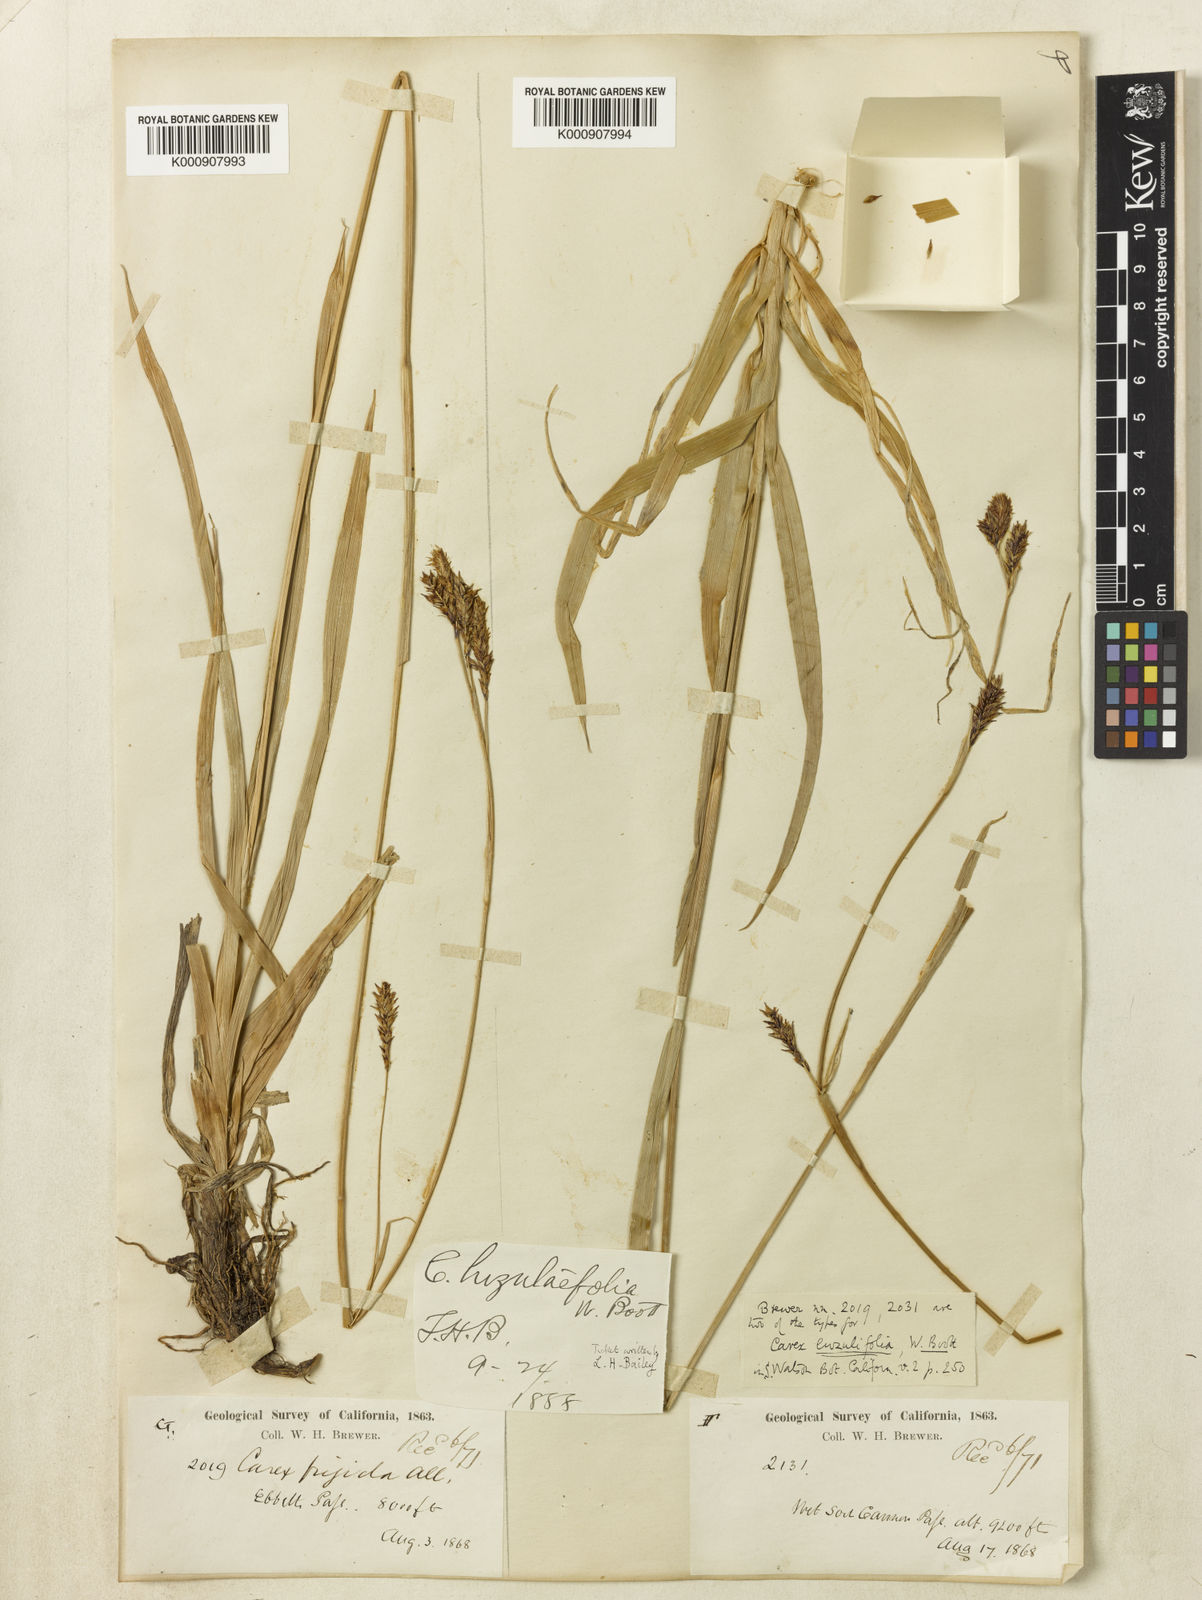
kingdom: Plantae
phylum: Tracheophyta
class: Liliopsida
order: Poales
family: Cyperaceae
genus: Carex
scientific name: Carex luzulifolia
